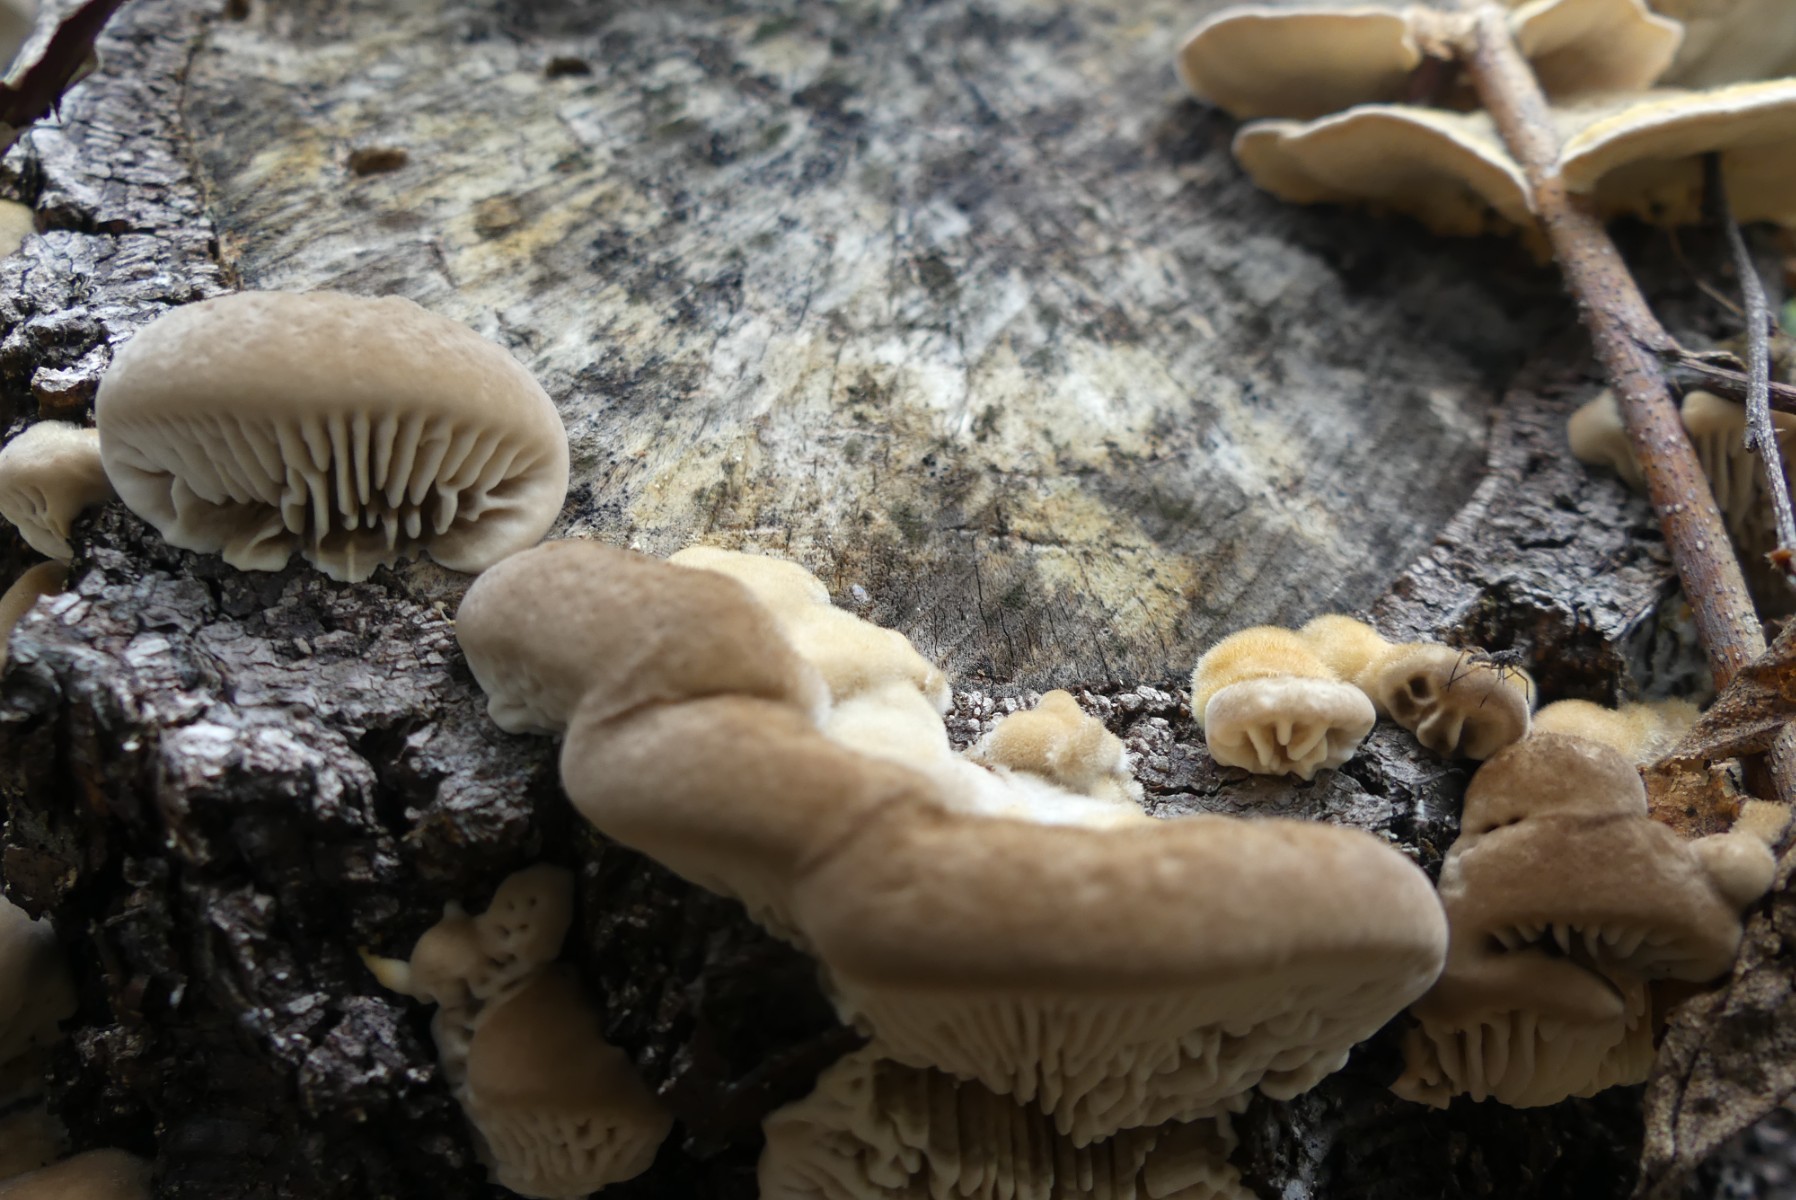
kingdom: Fungi
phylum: Basidiomycota
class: Agaricomycetes
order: Polyporales
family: Polyporaceae
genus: Lenzites
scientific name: Lenzites betulinus
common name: birke-læderporesvamp
